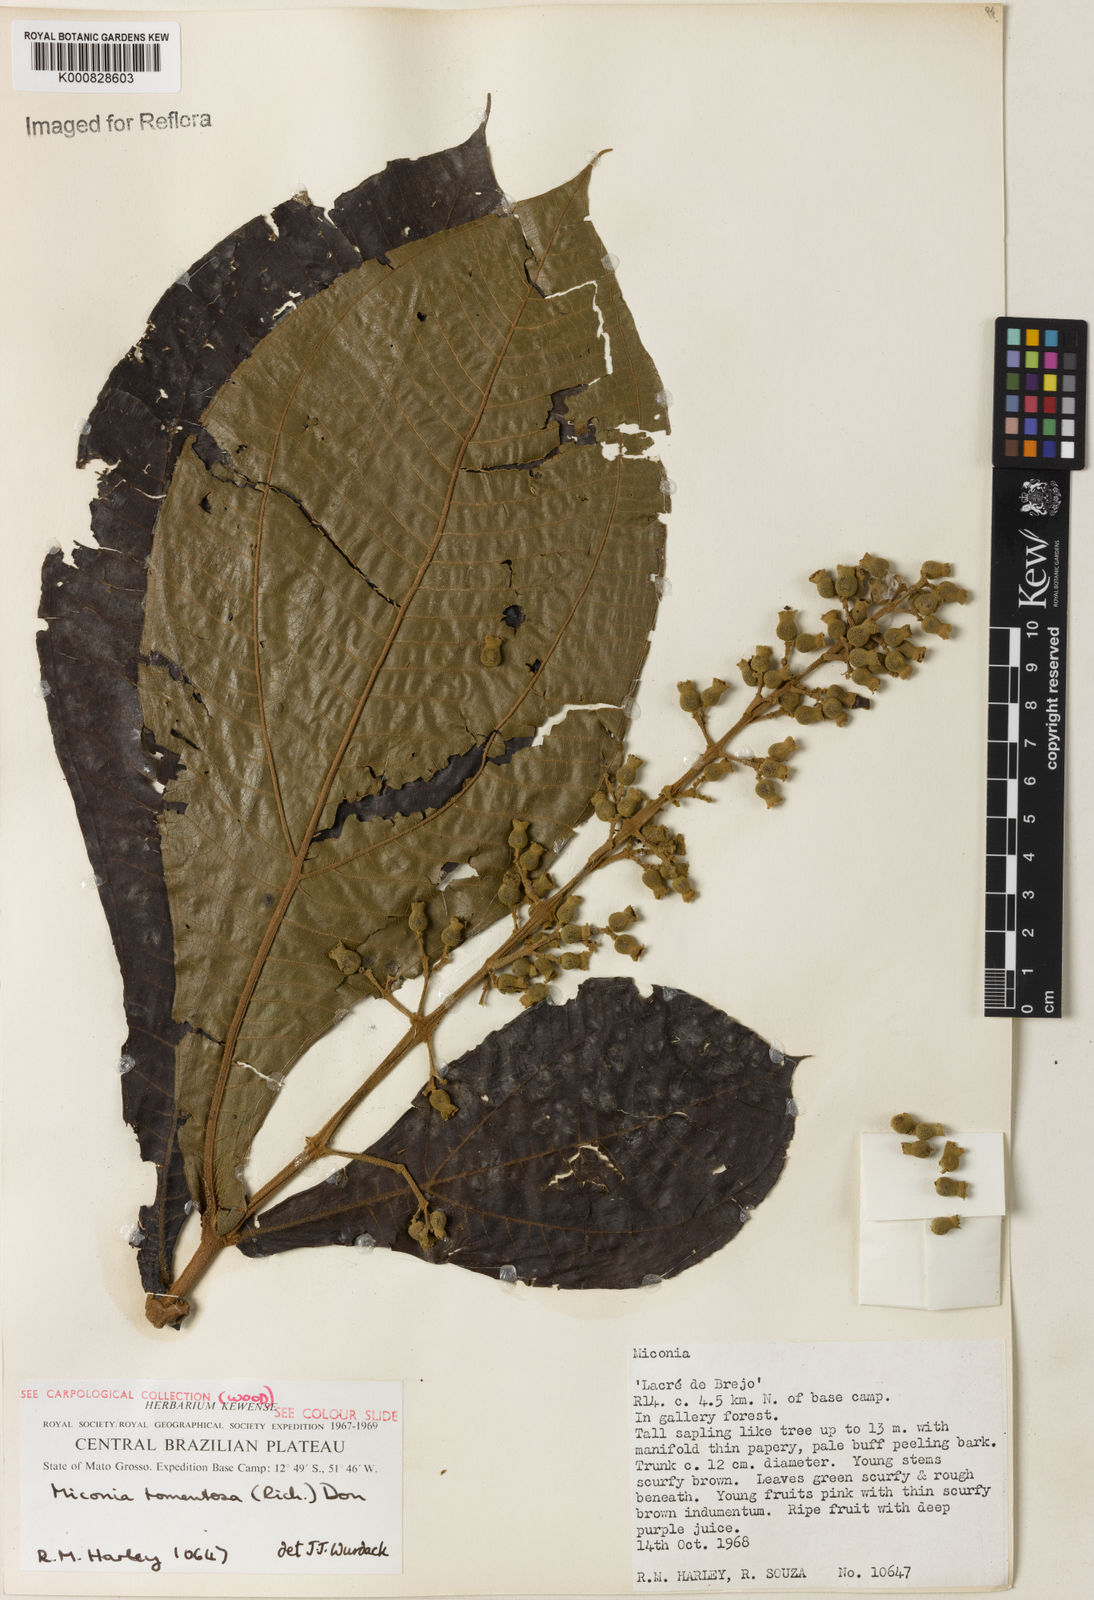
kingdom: Plantae
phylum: Tracheophyta
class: Magnoliopsida
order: Myrtales
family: Melastomataceae
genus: Miconia
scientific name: Miconia tomentosa
